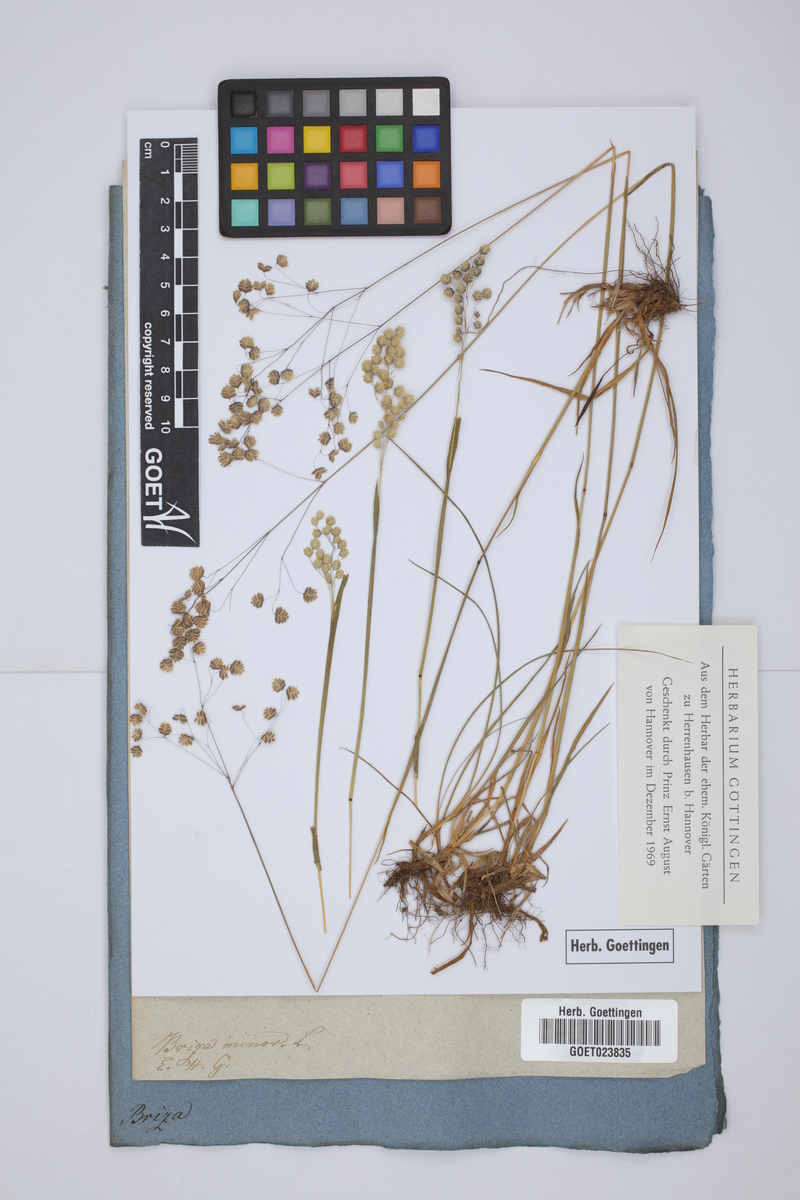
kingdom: Plantae
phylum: Tracheophyta
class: Liliopsida
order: Poales
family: Poaceae
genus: Briza
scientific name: Briza minor
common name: Lesser quaking-grass
